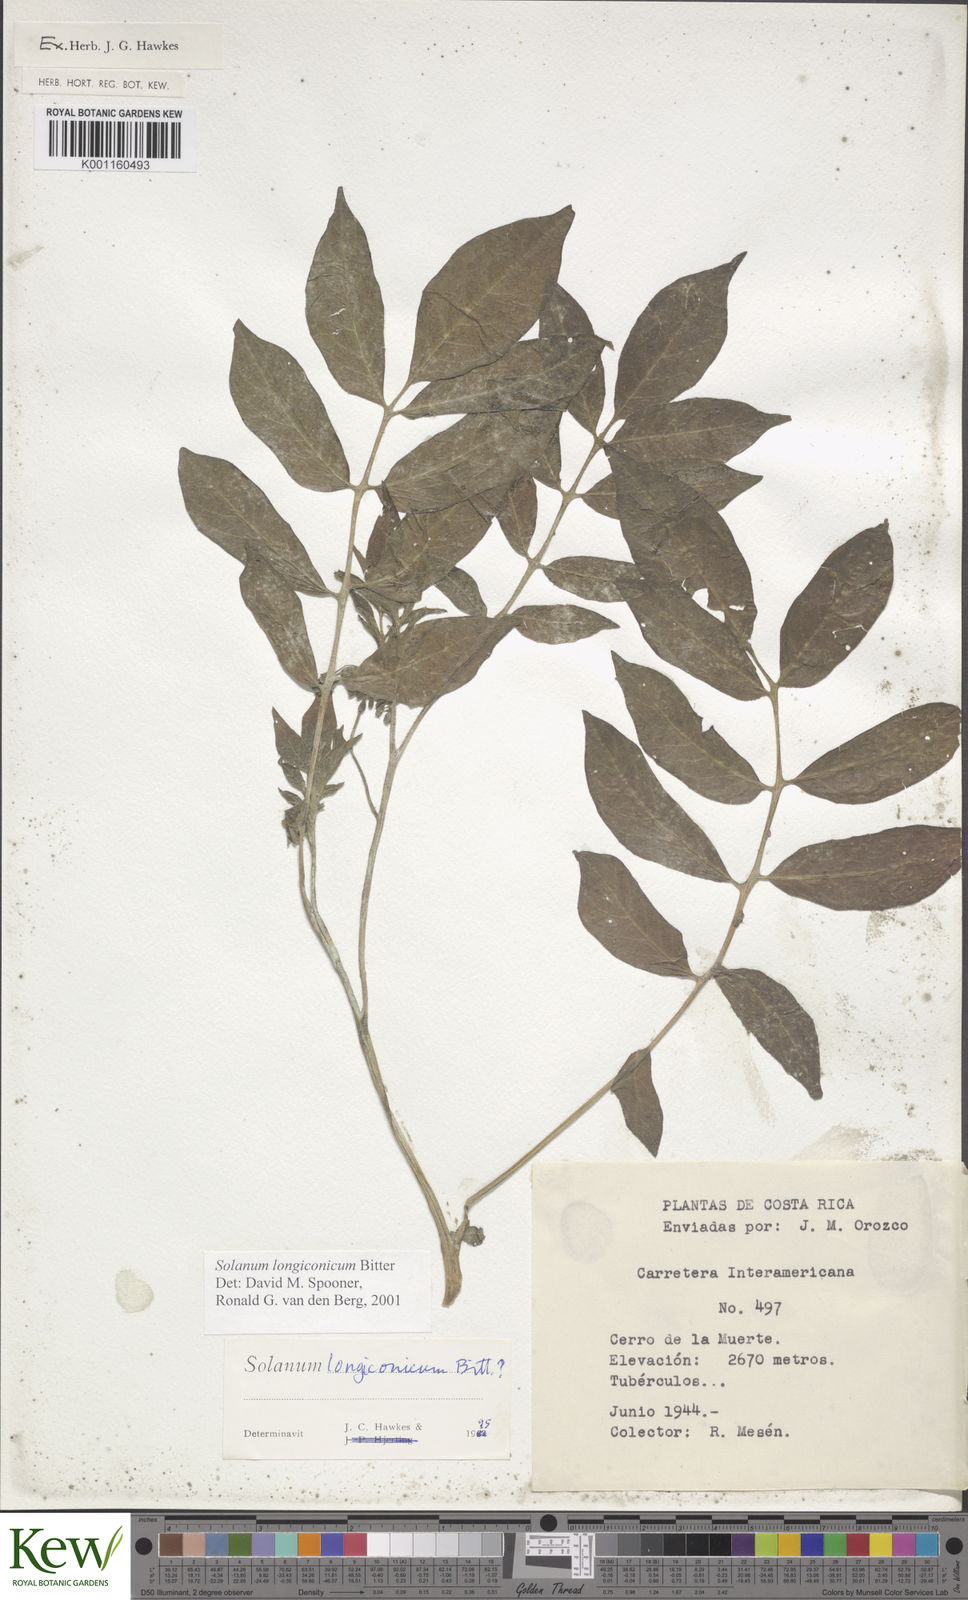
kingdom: Plantae
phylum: Tracheophyta
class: Magnoliopsida
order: Solanales
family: Solanaceae
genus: Solanum
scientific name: Solanum longiconicum
